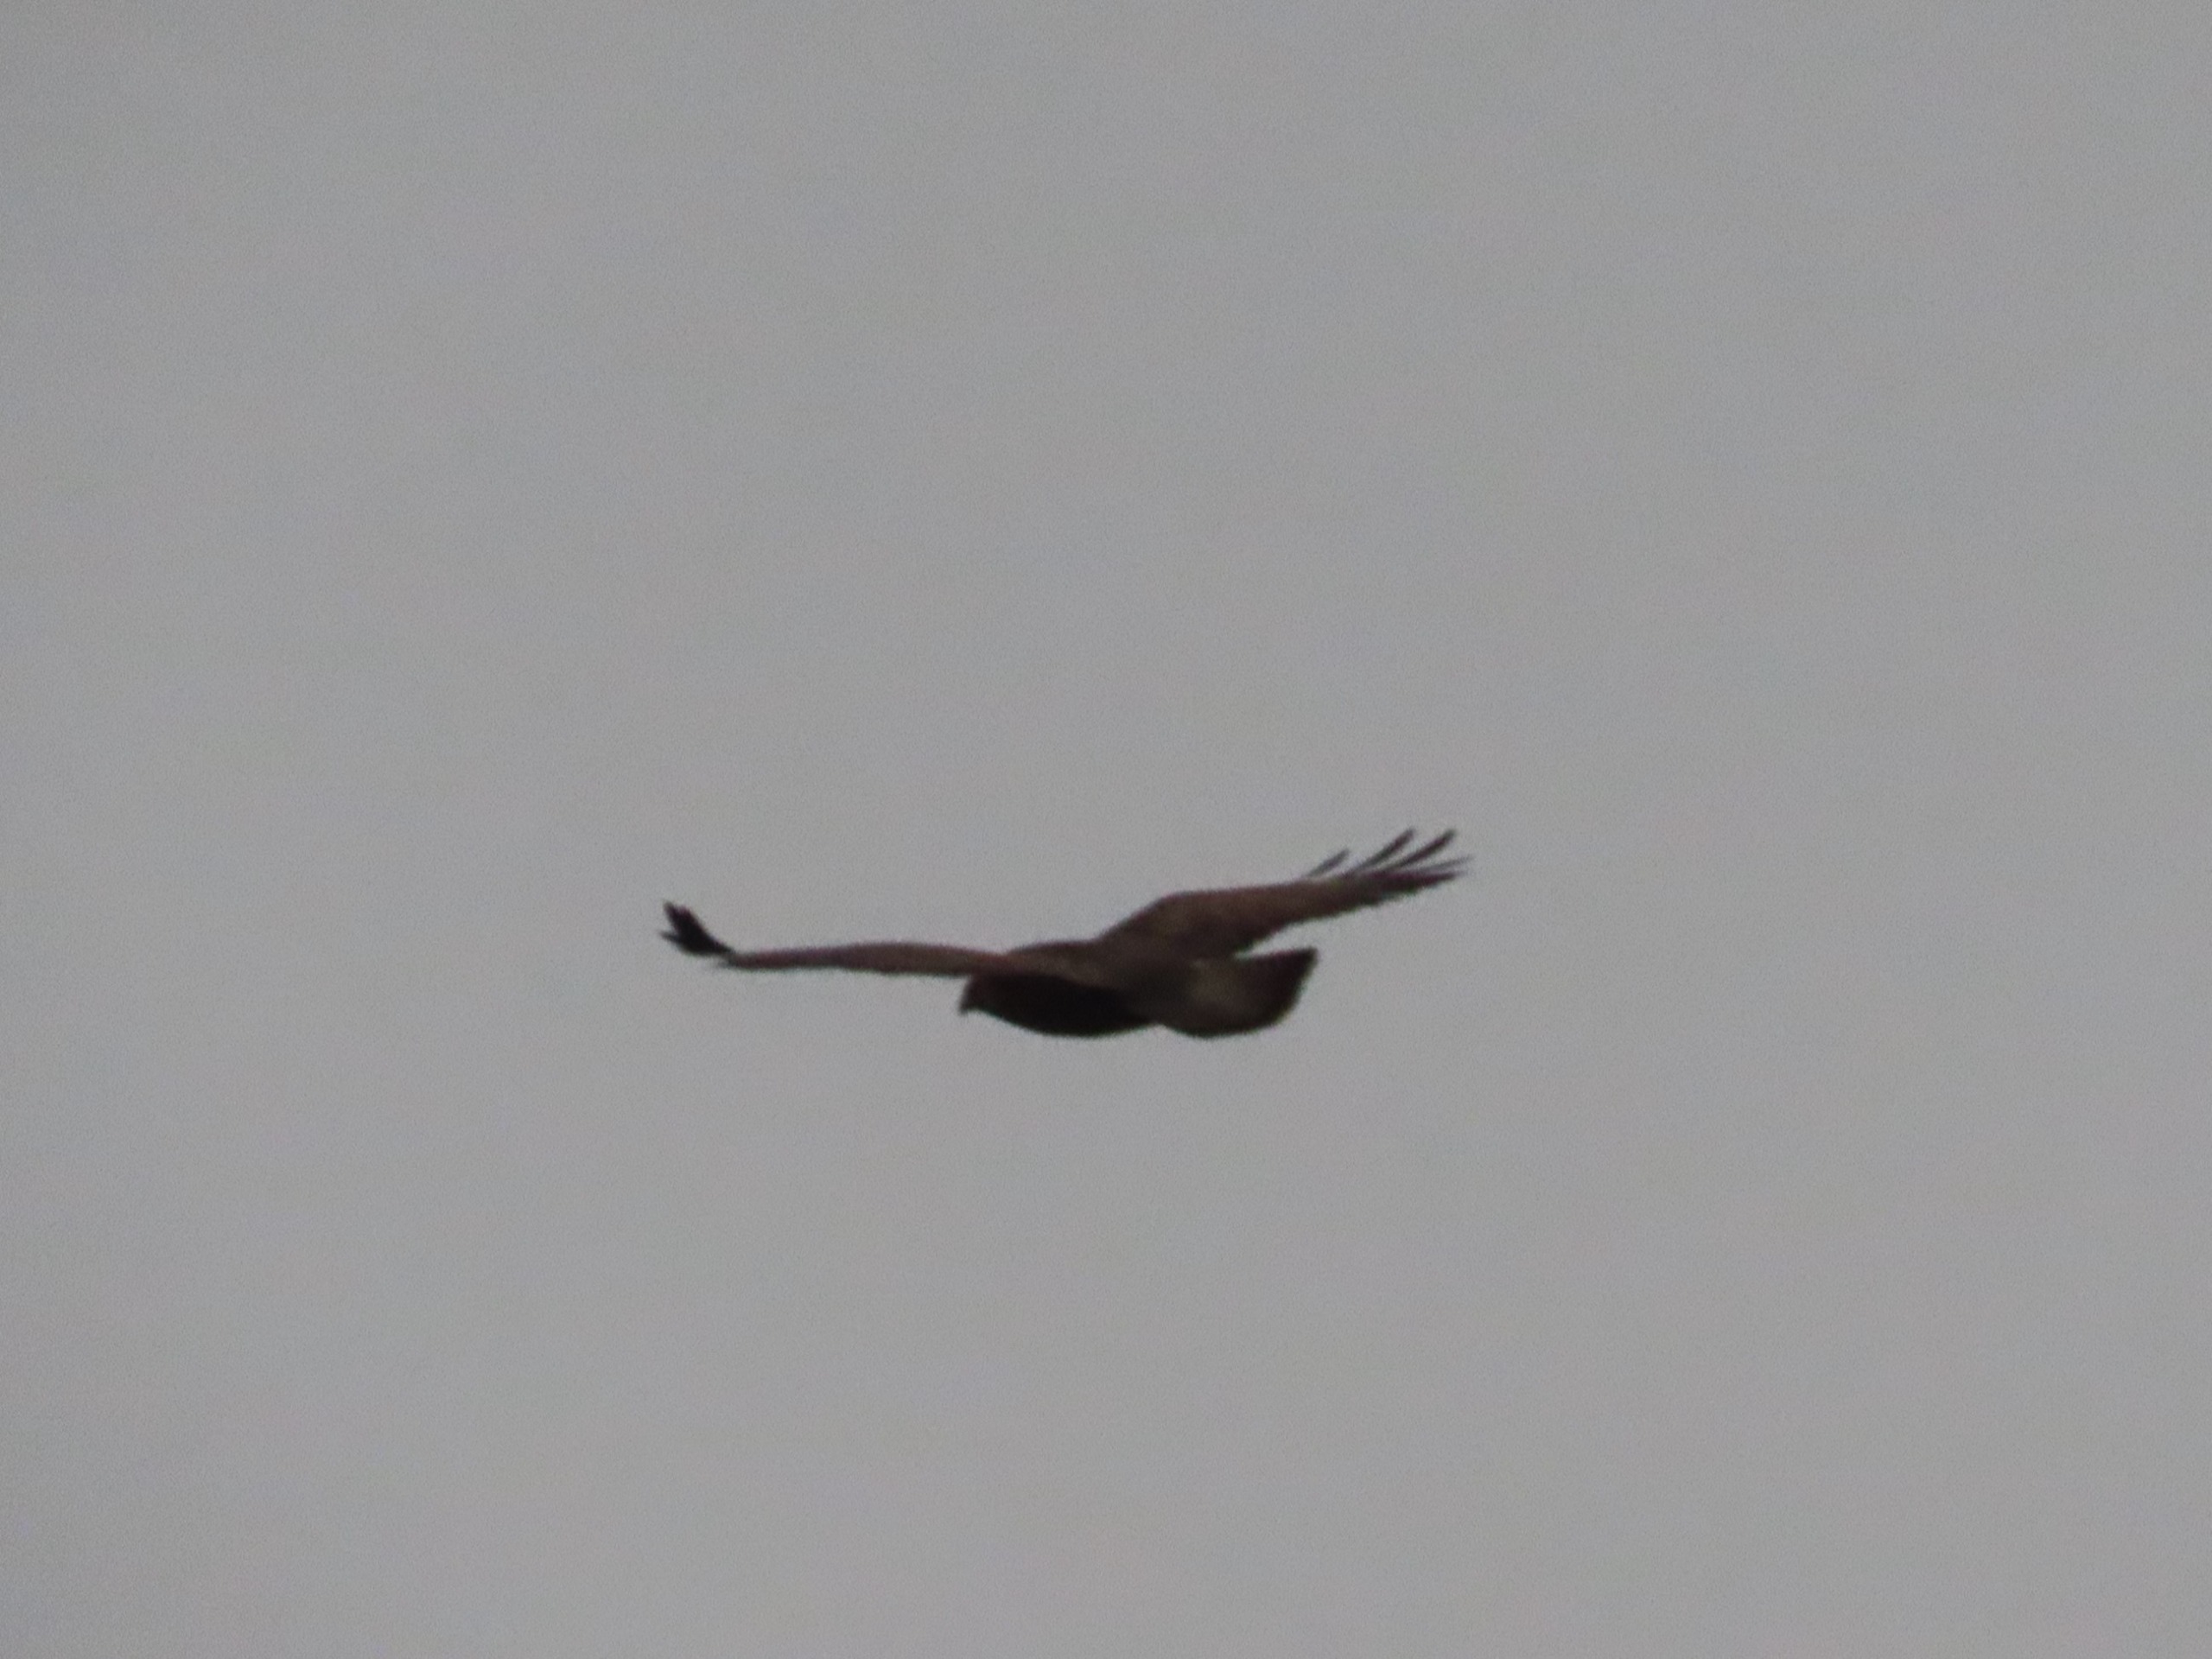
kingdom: Animalia
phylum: Chordata
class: Aves
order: Accipitriformes
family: Accipitridae
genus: Buteo
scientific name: Buteo buteo
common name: Musvåge
